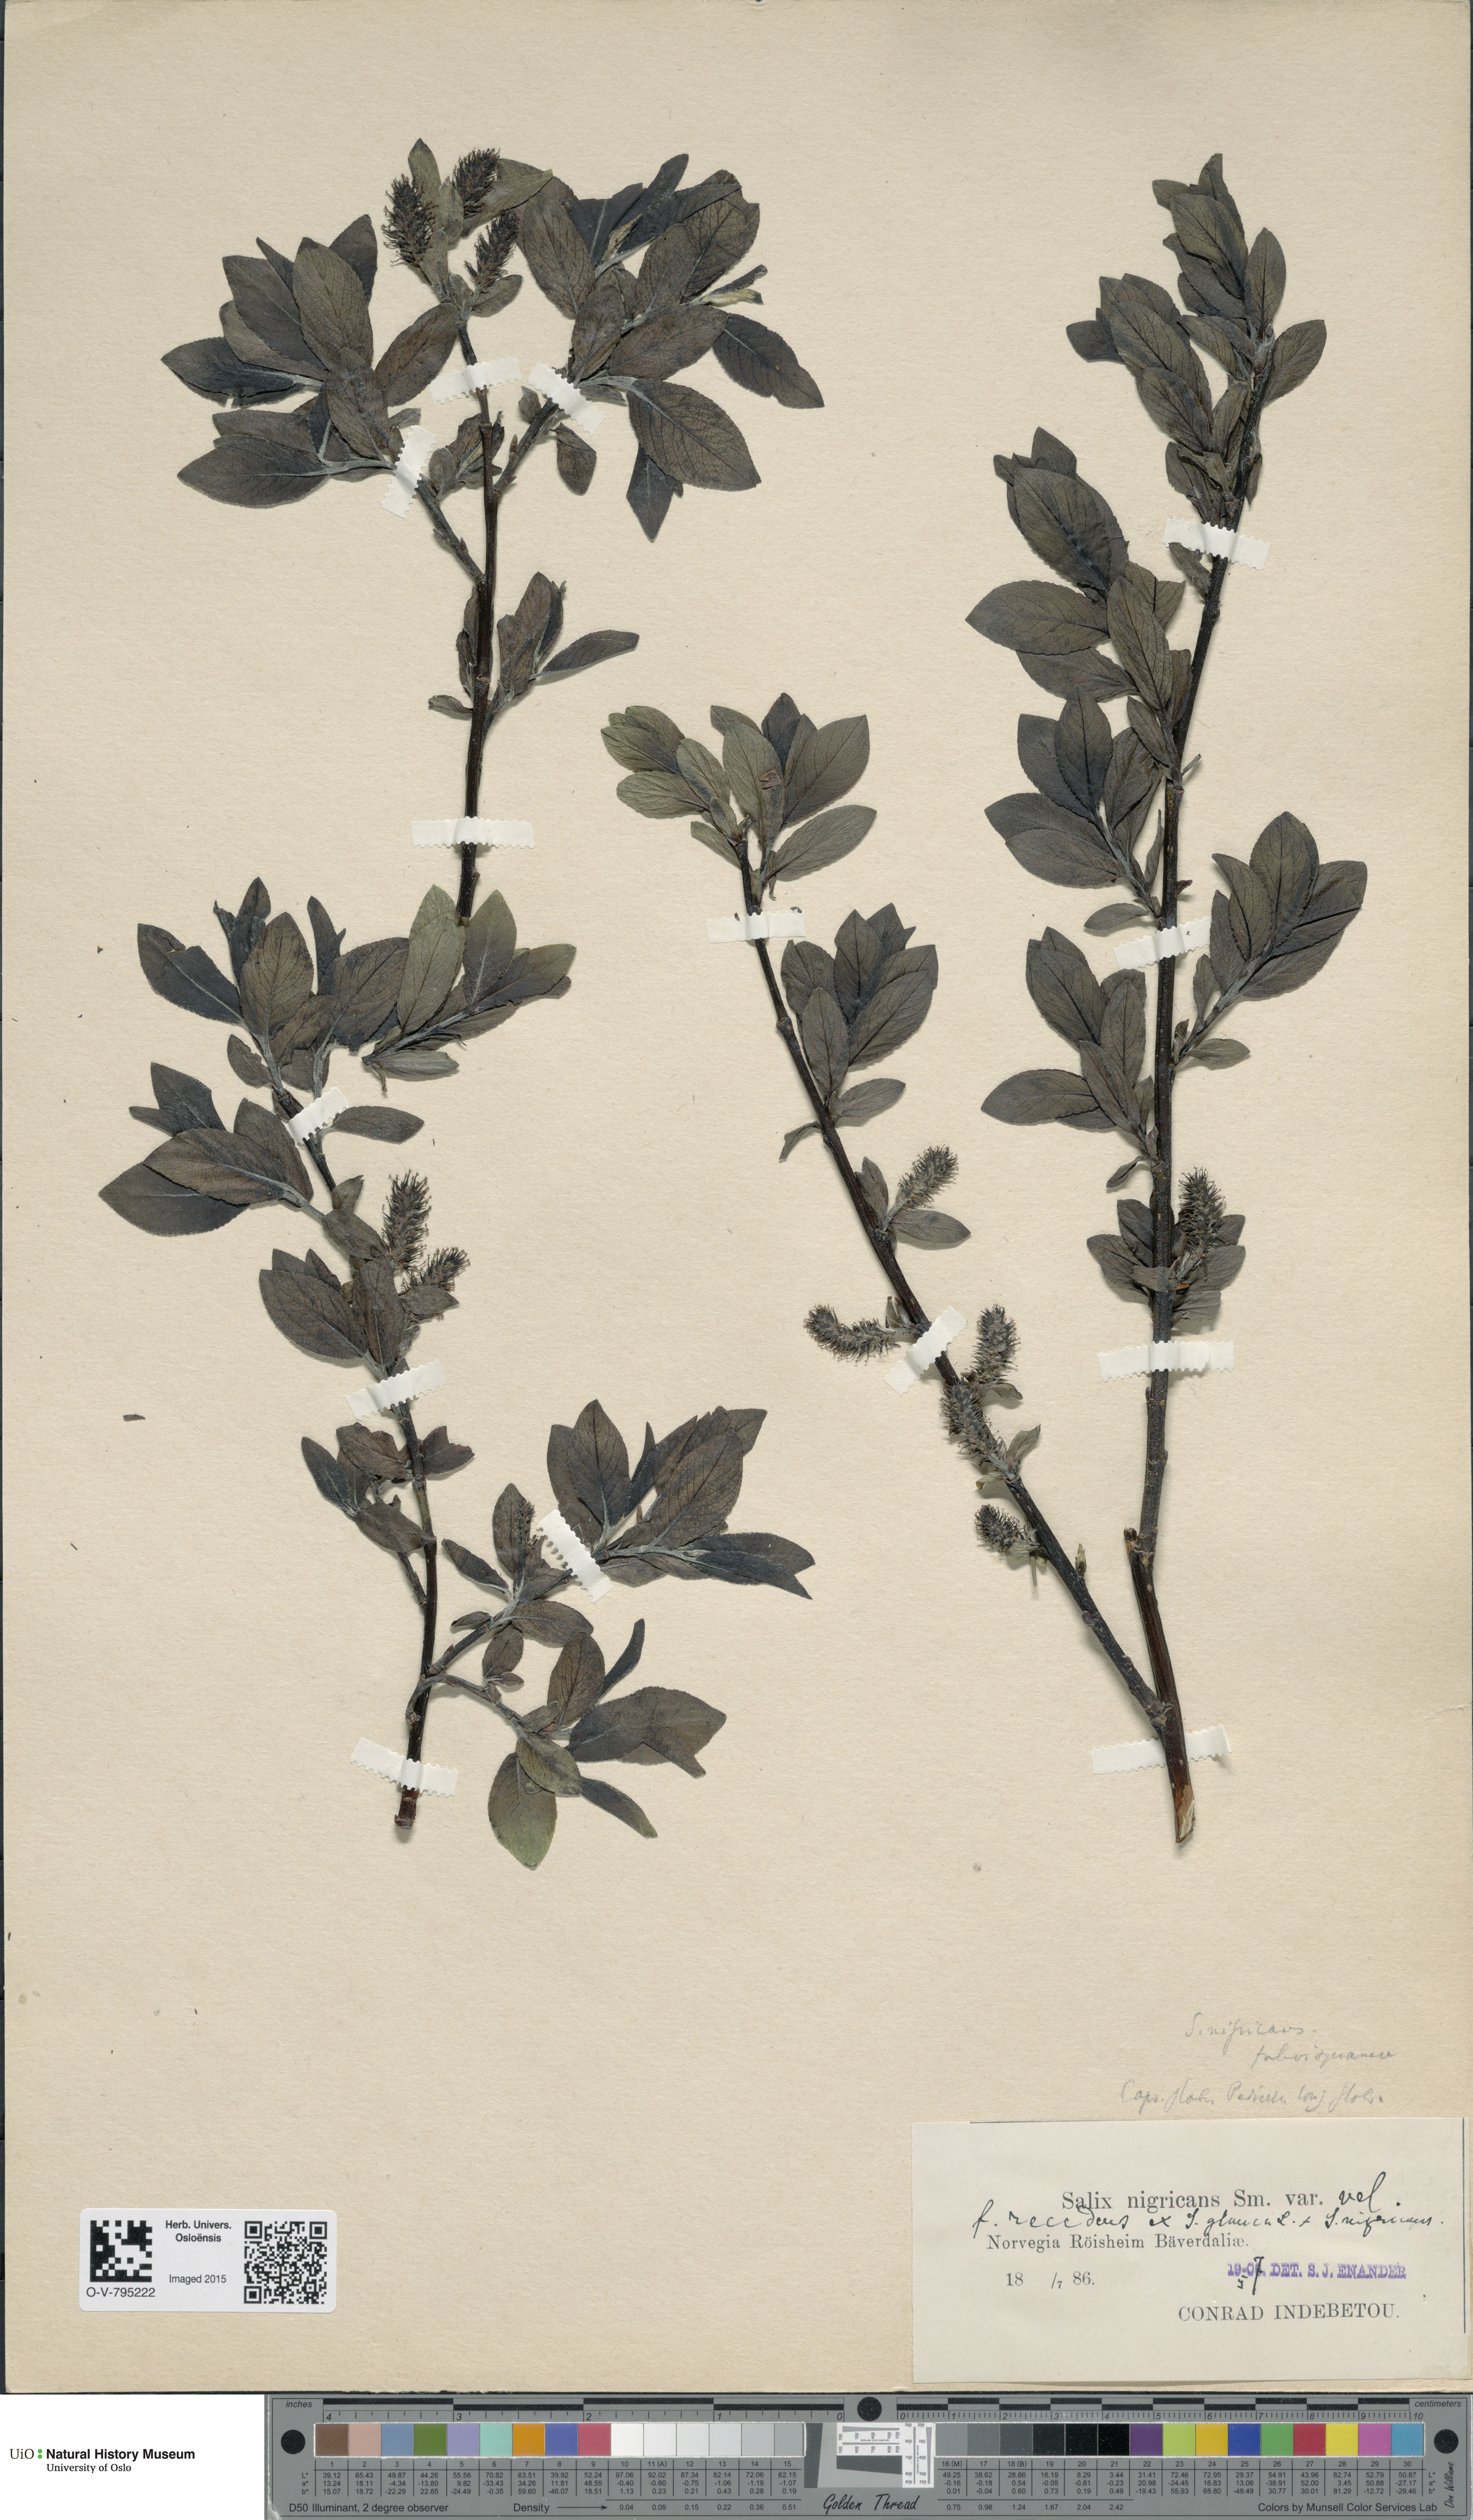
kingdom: Plantae
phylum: Tracheophyta
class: Magnoliopsida
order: Malpighiales
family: Salicaceae
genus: Salix
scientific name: Salix myrsinifolia
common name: Dark-leaved willow
